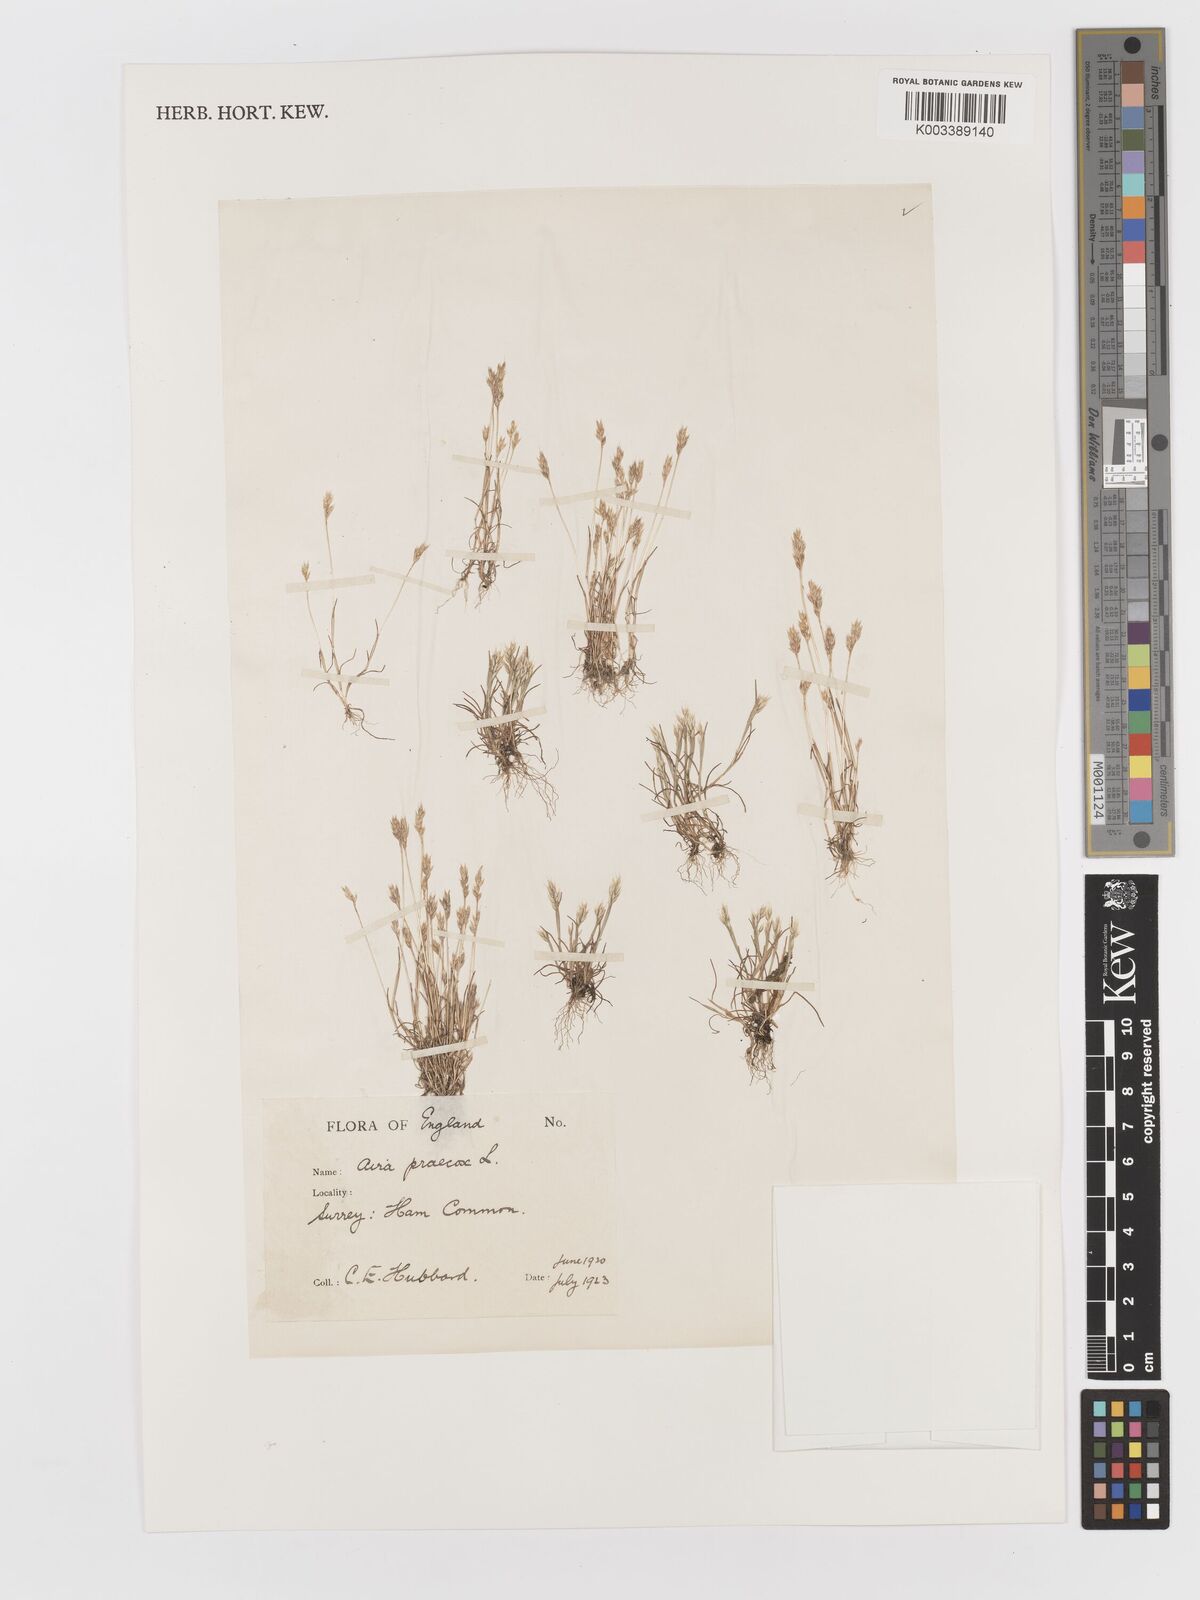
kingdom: Plantae
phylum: Tracheophyta
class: Liliopsida
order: Poales
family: Poaceae
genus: Aira
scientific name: Aira praecox
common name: Early hair-grass
